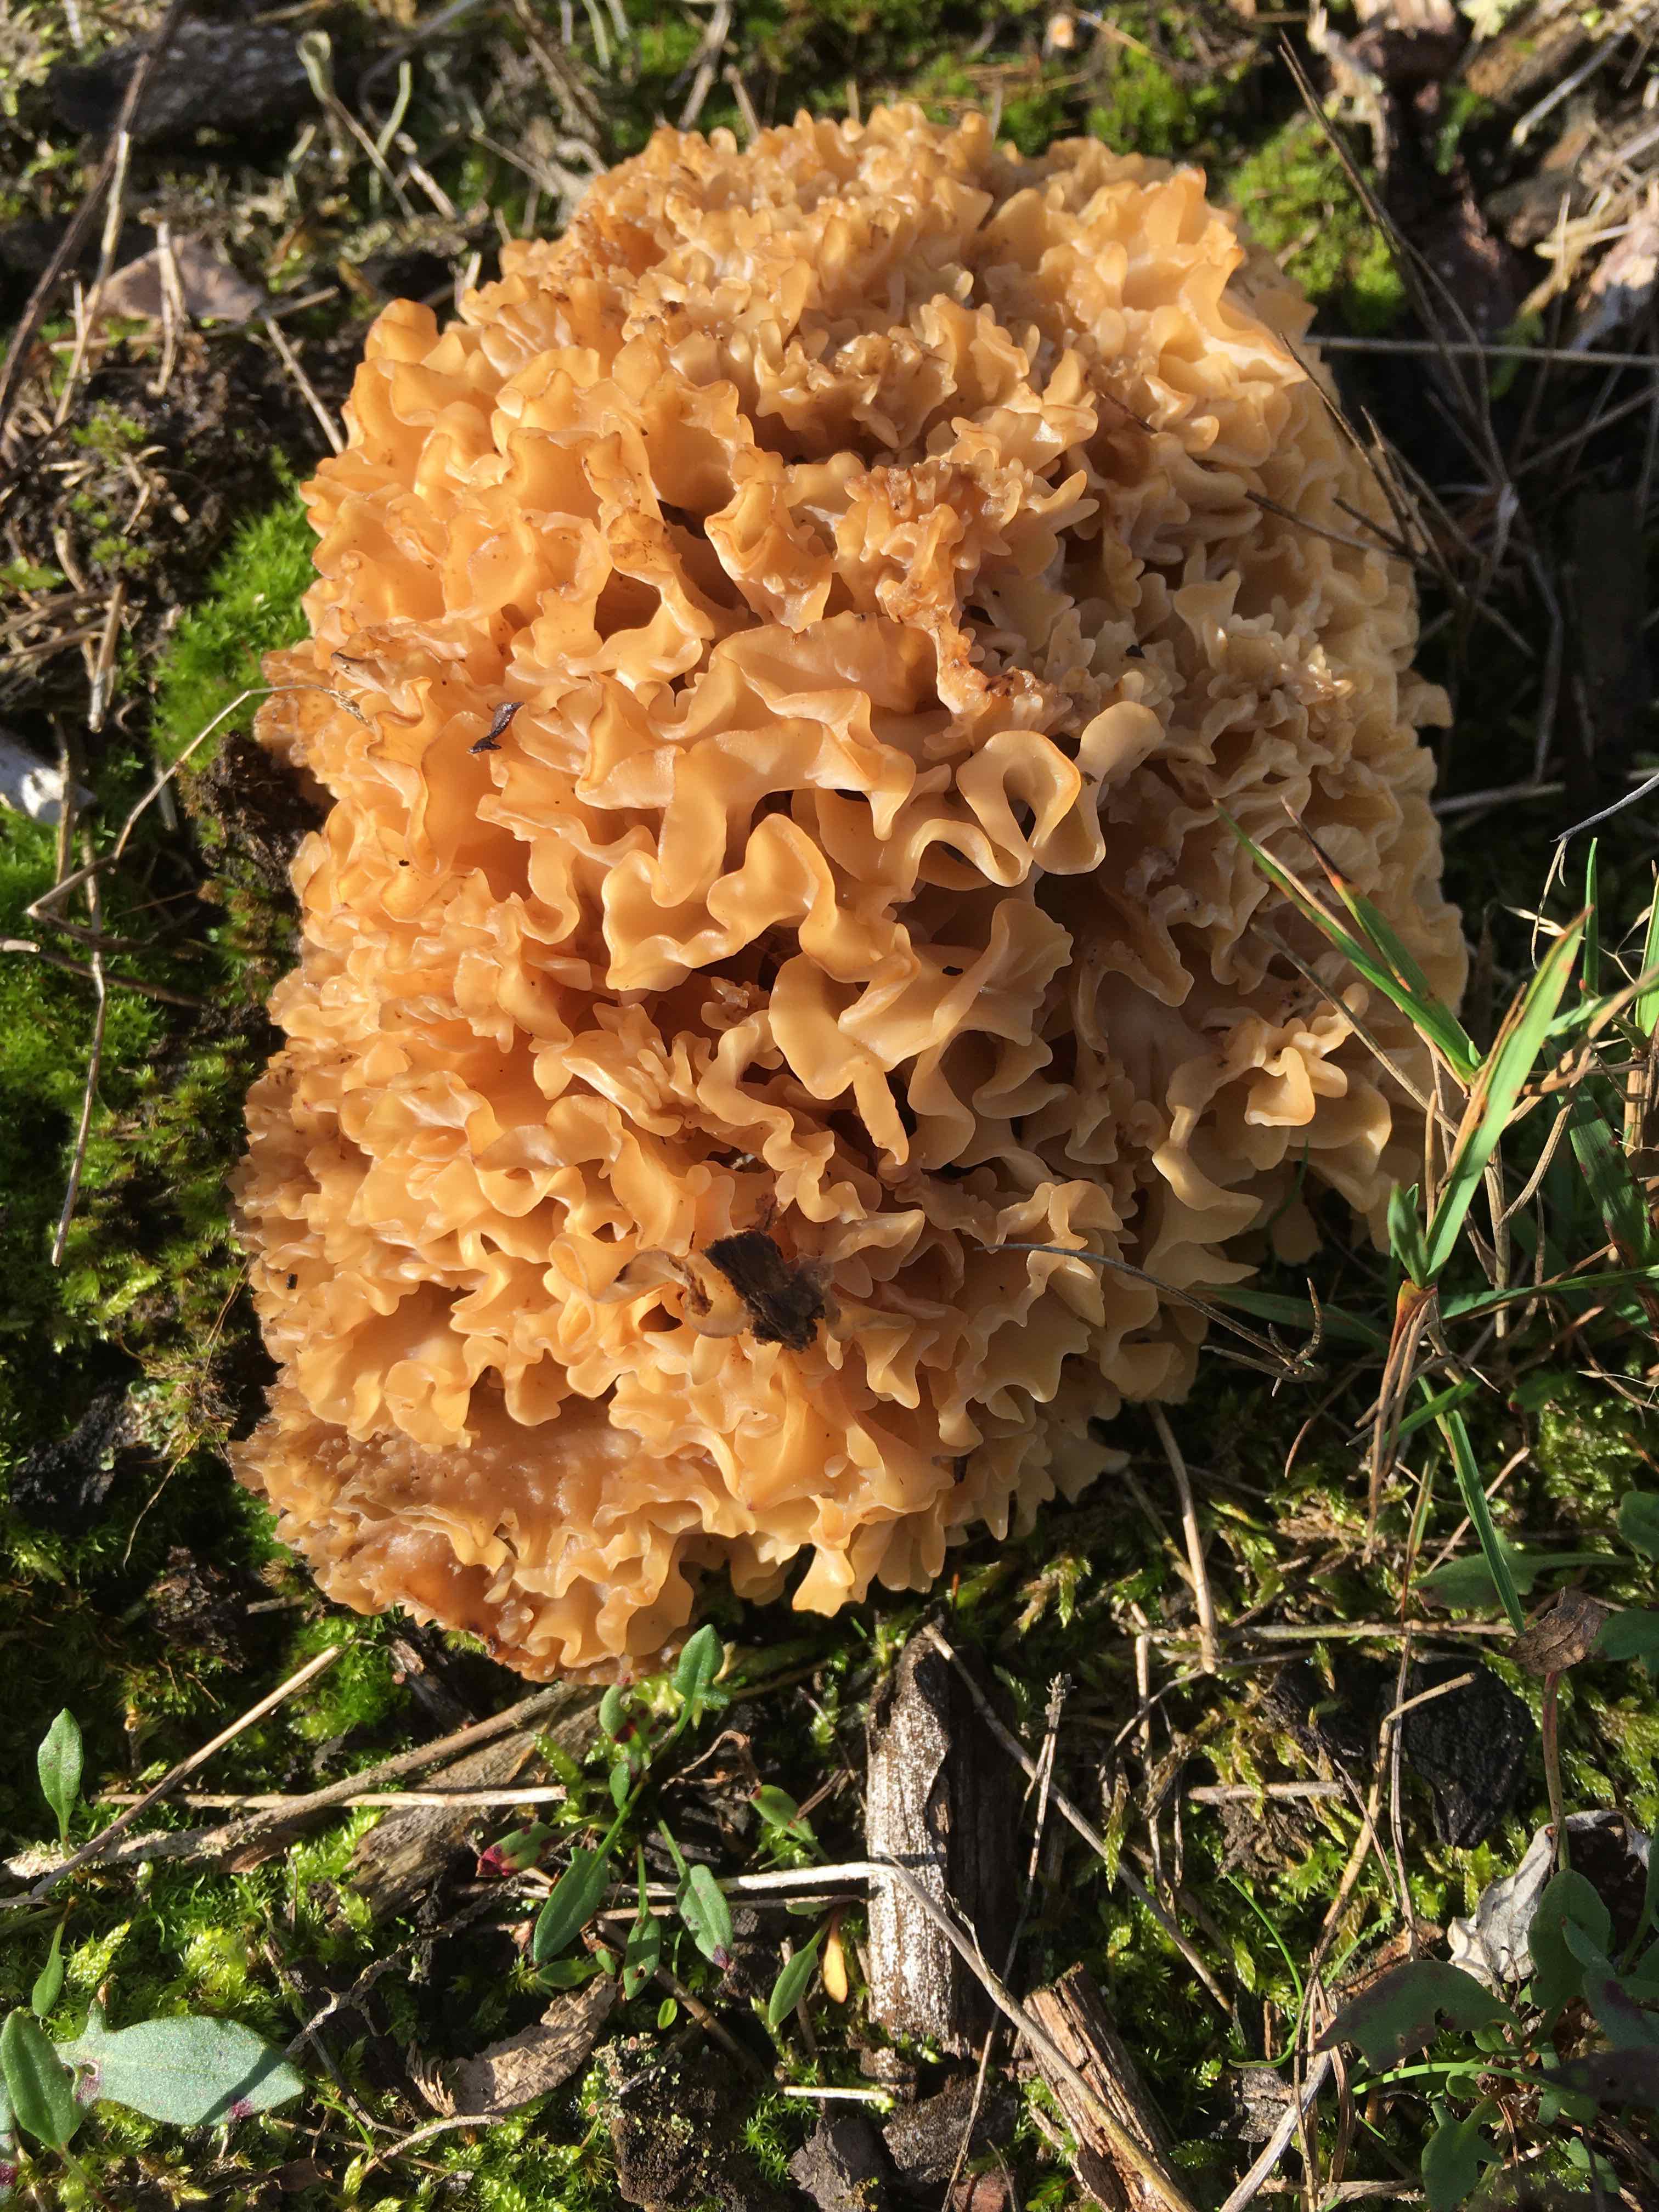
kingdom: Fungi
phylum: Basidiomycota
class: Agaricomycetes
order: Polyporales
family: Sparassidaceae
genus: Sparassis
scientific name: Sparassis crispa
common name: kruset blomkålssvamp
